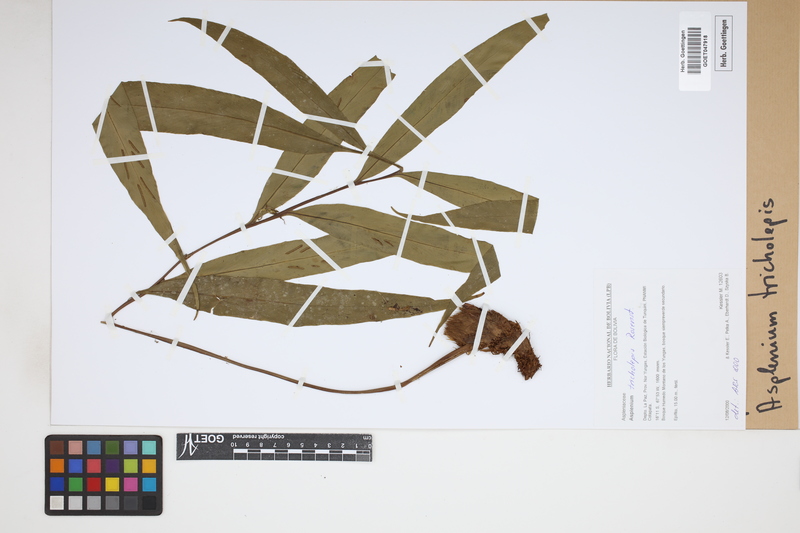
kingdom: Plantae
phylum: Tracheophyta
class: Polypodiopsida
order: Polypodiales
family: Aspleniaceae
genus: Asplenium
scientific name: Asplenium tricholepis
